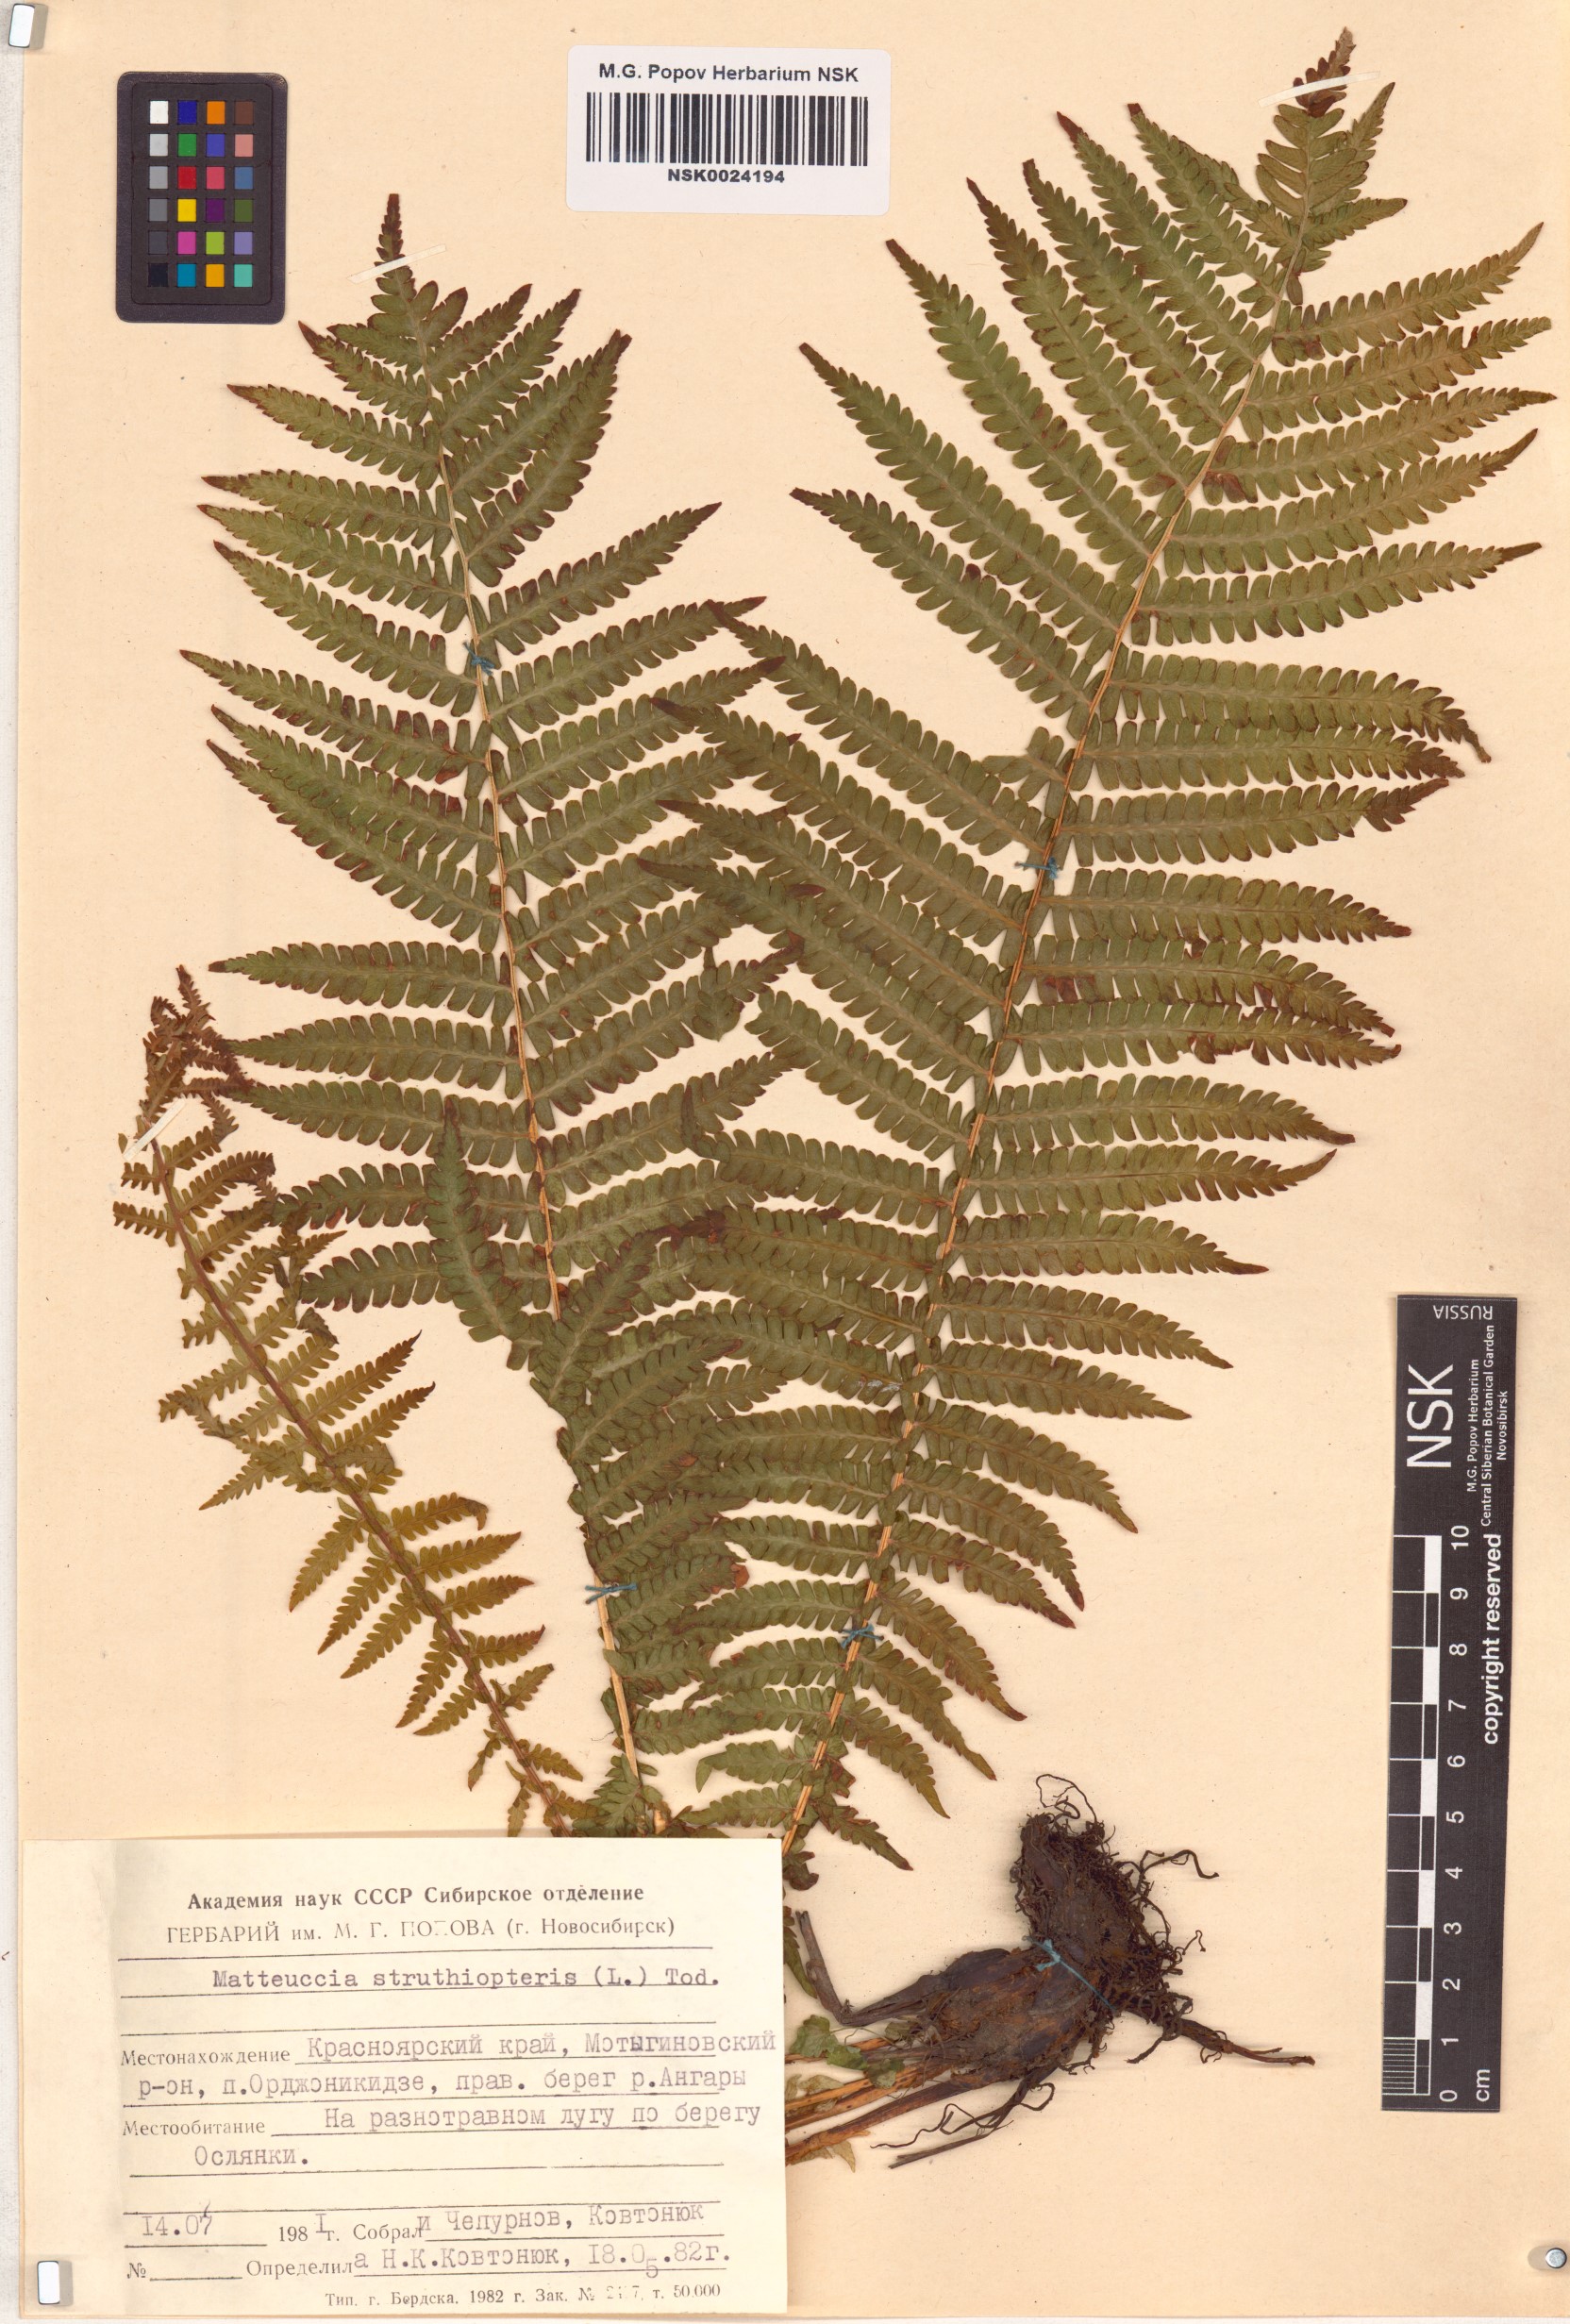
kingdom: Plantae
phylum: Tracheophyta
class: Polypodiopsida
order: Polypodiales
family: Onocleaceae
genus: Matteuccia
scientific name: Matteuccia struthiopteris
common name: Ostrich fern
